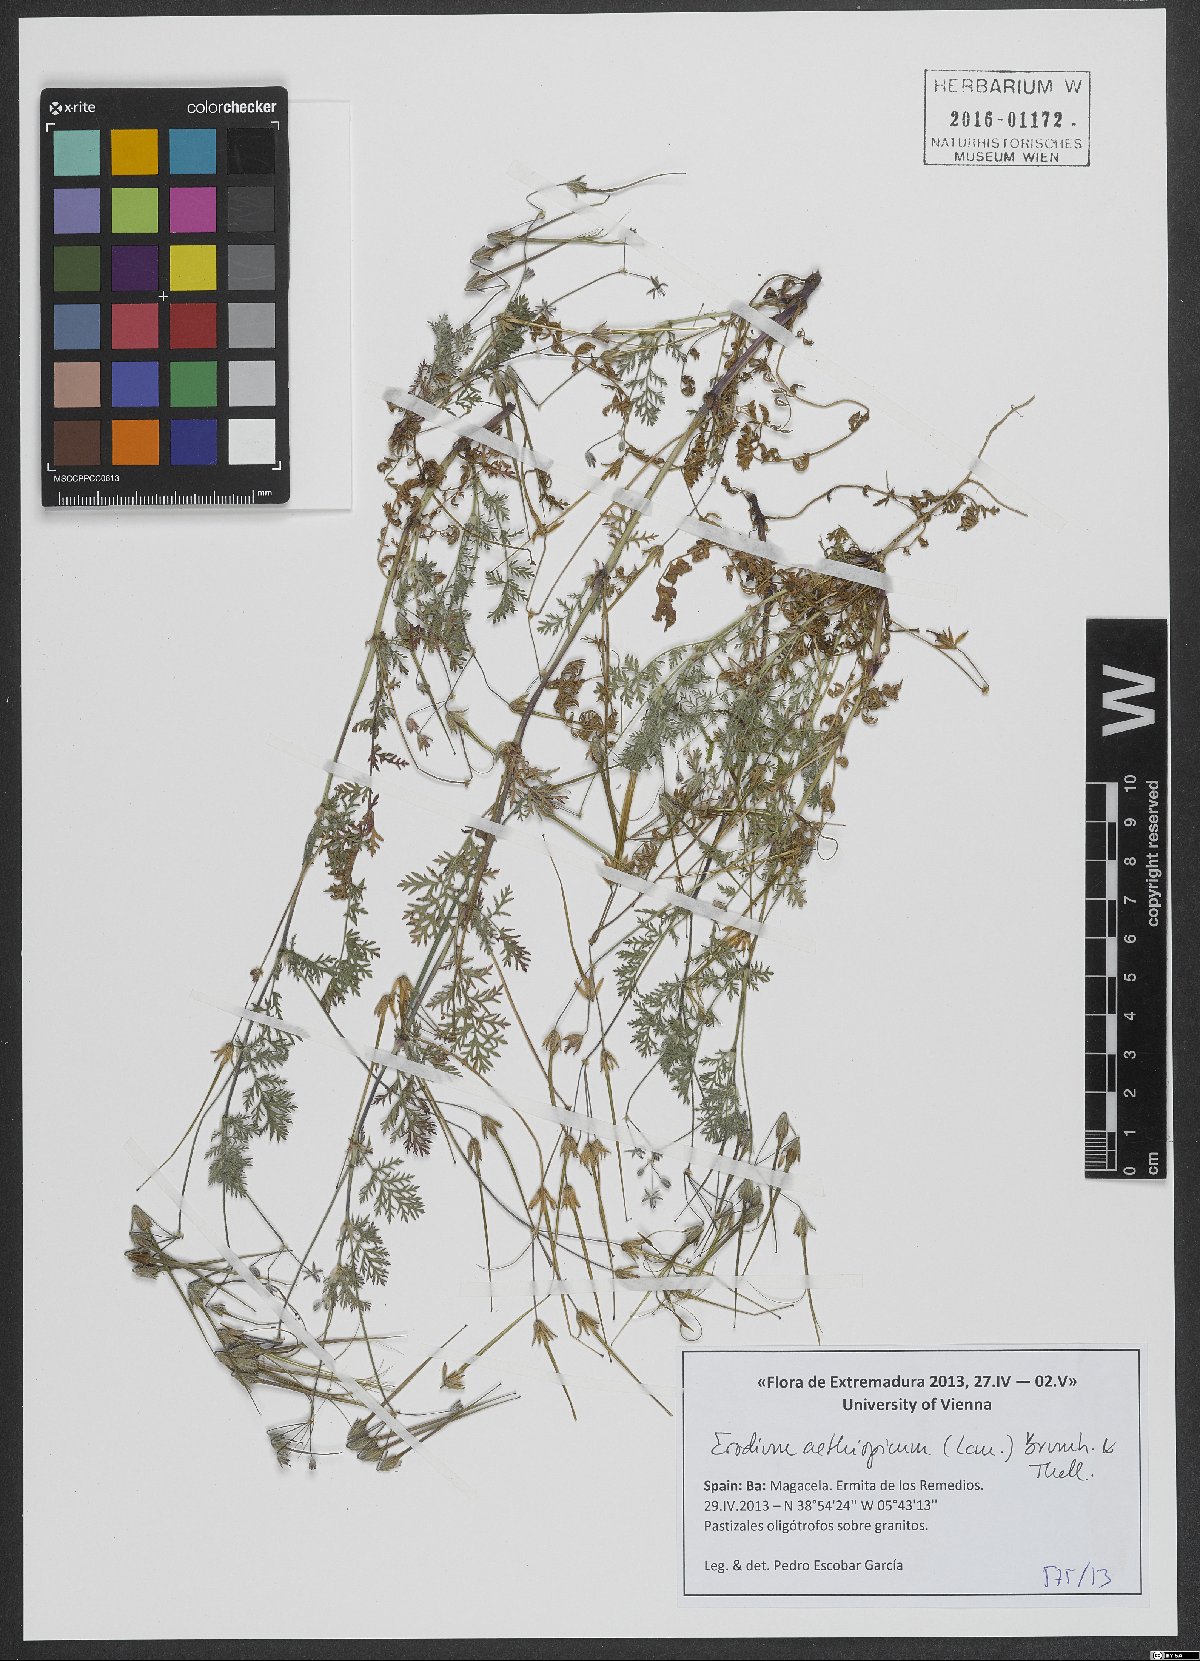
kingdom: Plantae
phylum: Tracheophyta
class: Magnoliopsida
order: Geraniales
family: Geraniaceae
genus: Erodium
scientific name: Erodium aethiopicum
